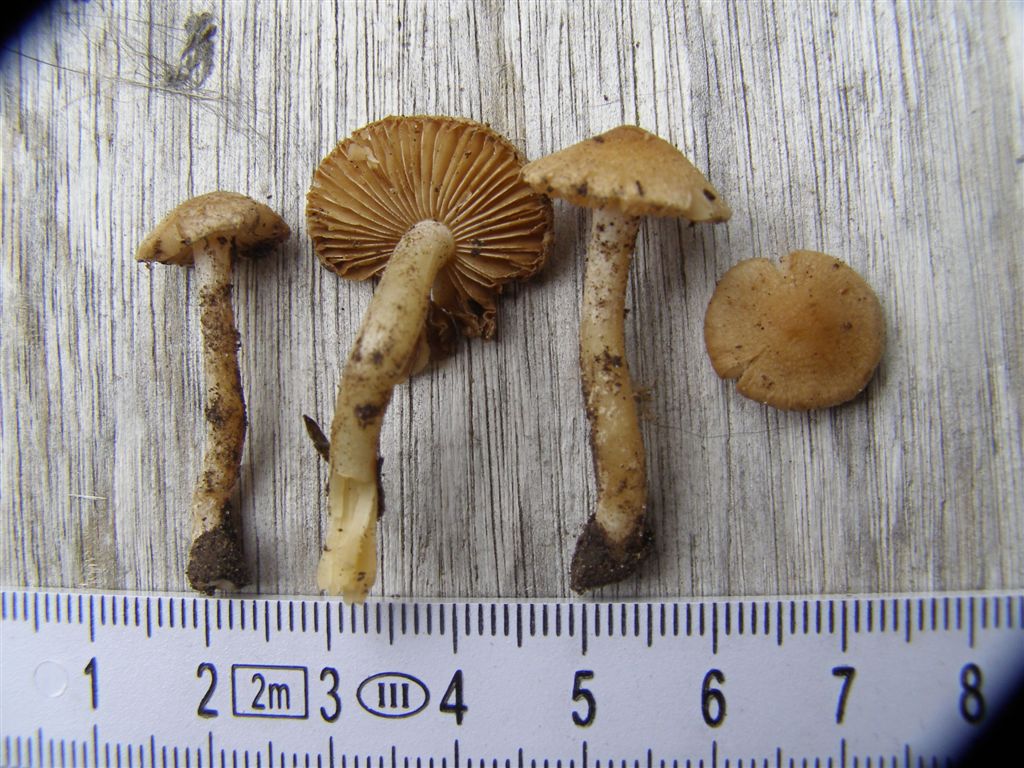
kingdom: Fungi
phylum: Basidiomycota
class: Agaricomycetes
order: Agaricales
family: Inocybaceae
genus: Inocybe
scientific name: Inocybe albovelutipes
